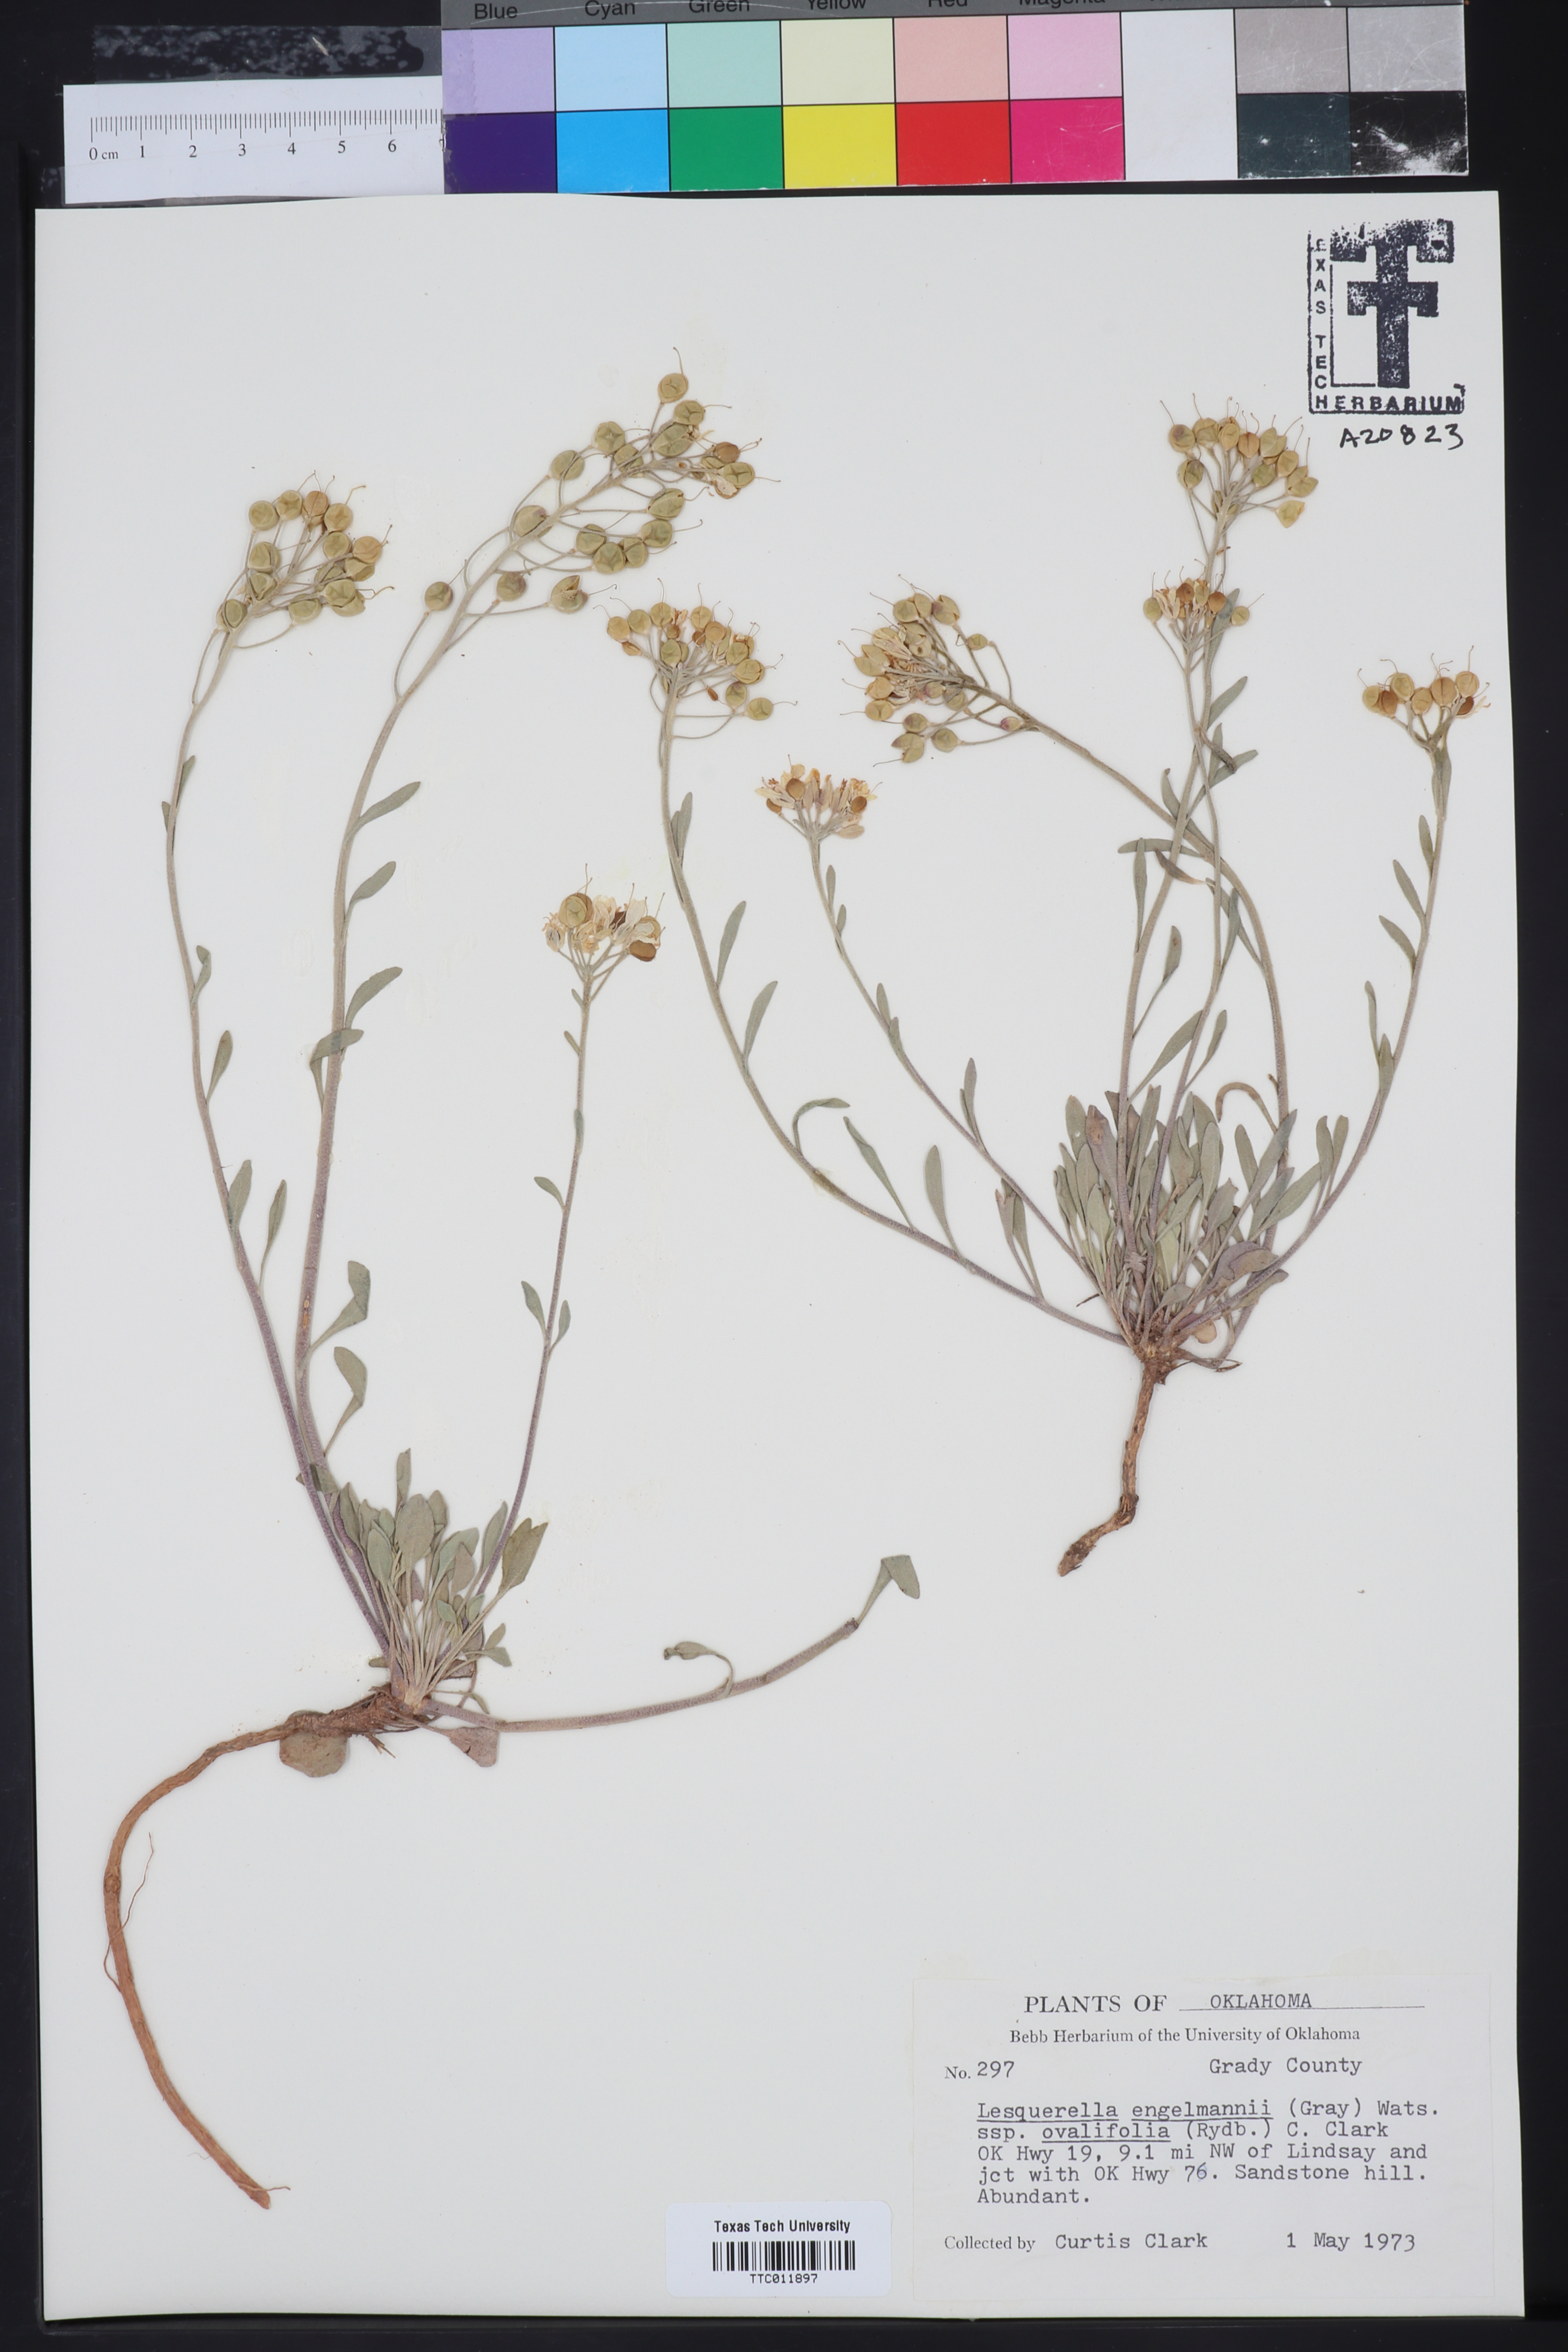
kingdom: Plantae
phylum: Tracheophyta
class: Magnoliopsida
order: Brassicales
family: Brassicaceae
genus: Physaria
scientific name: Physaria engelmannii
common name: Engelmann's bladderpod
